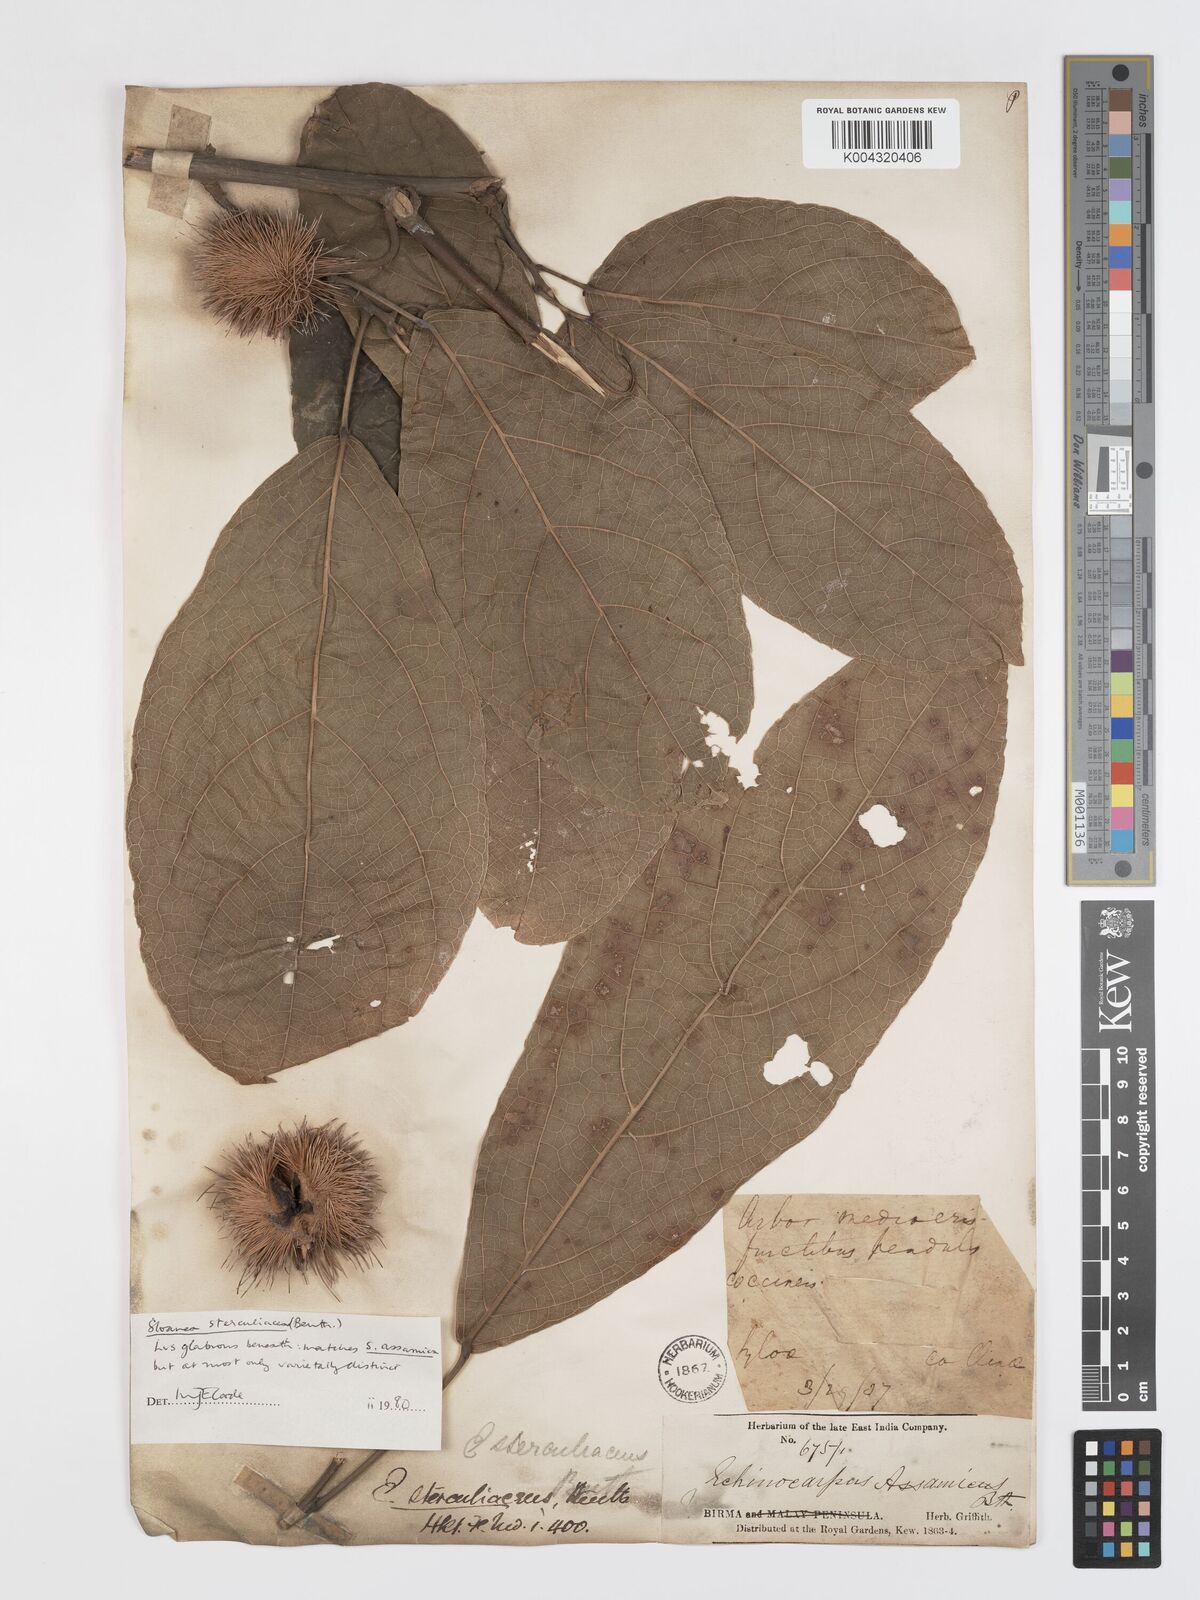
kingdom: Plantae
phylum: Tracheophyta
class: Magnoliopsida
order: Oxalidales
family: Elaeocarpaceae
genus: Sloanea
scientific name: Sloanea sterculiacea
